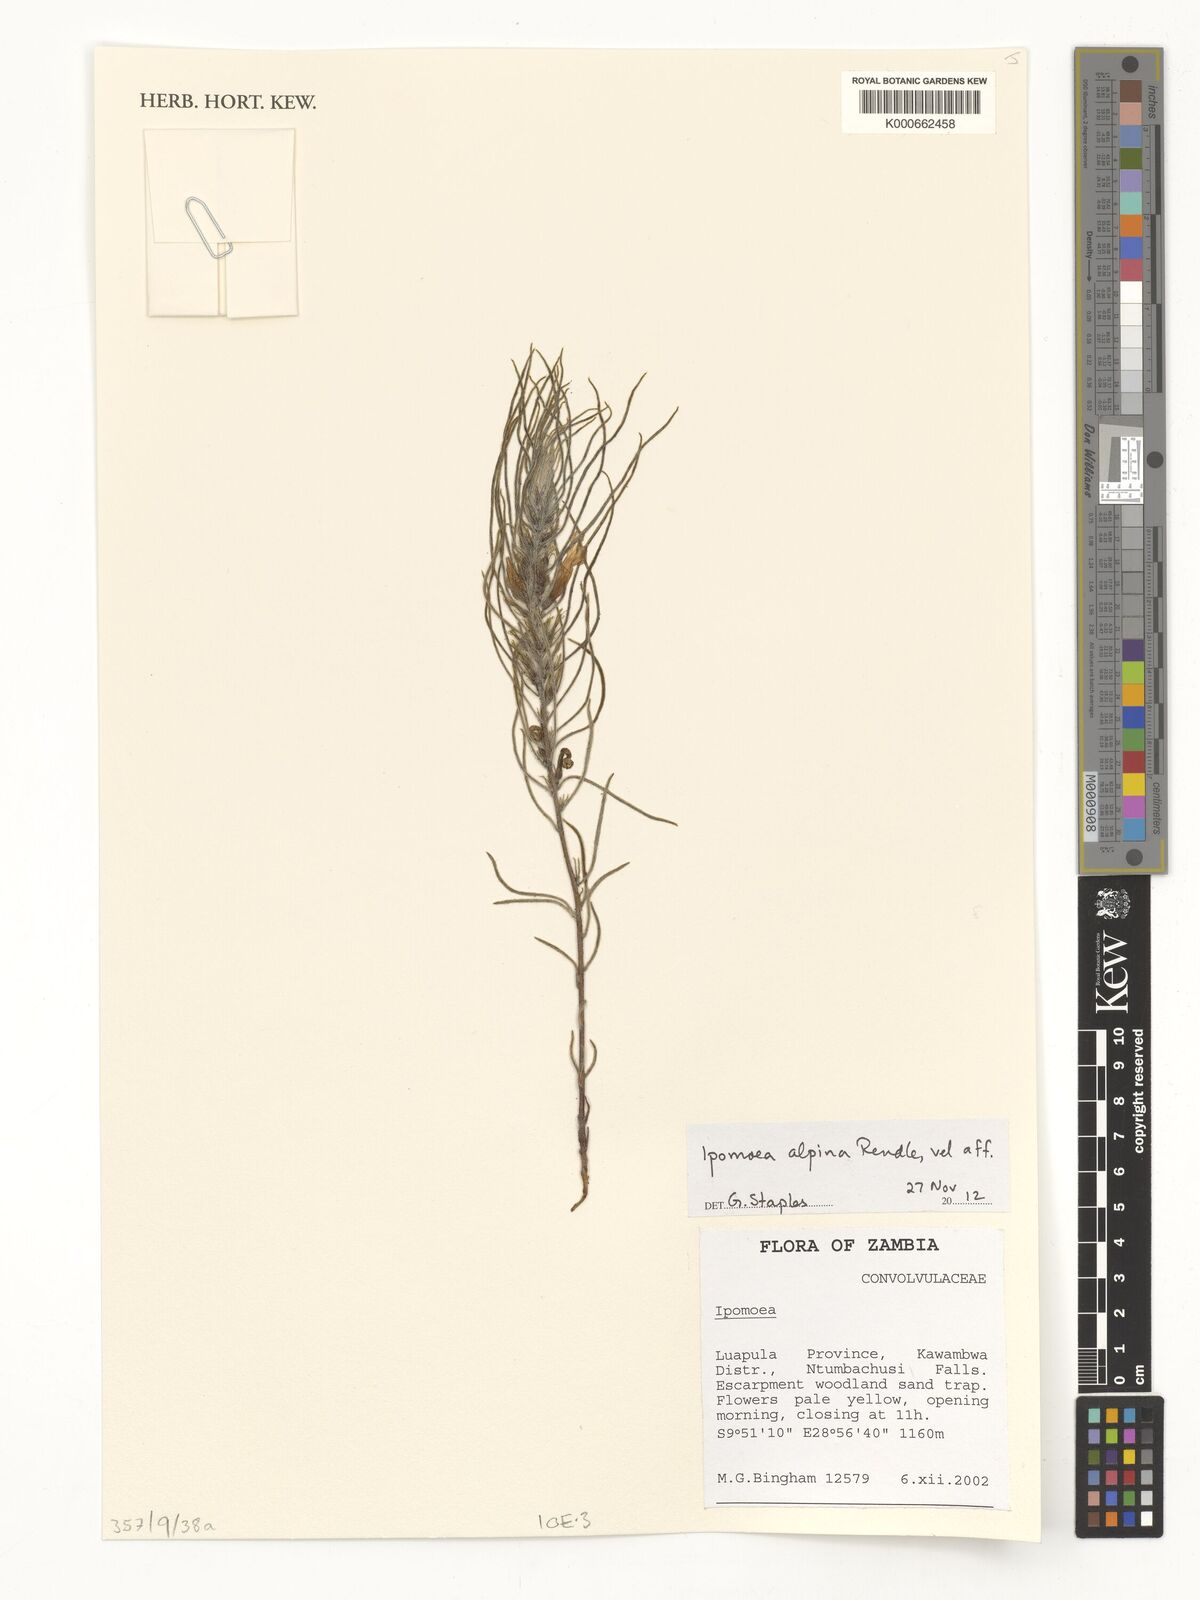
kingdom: Plantae
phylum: Tracheophyta
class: Magnoliopsida
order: Solanales
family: Convolvulaceae
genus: Ipomoea
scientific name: Ipomoea linosepala
